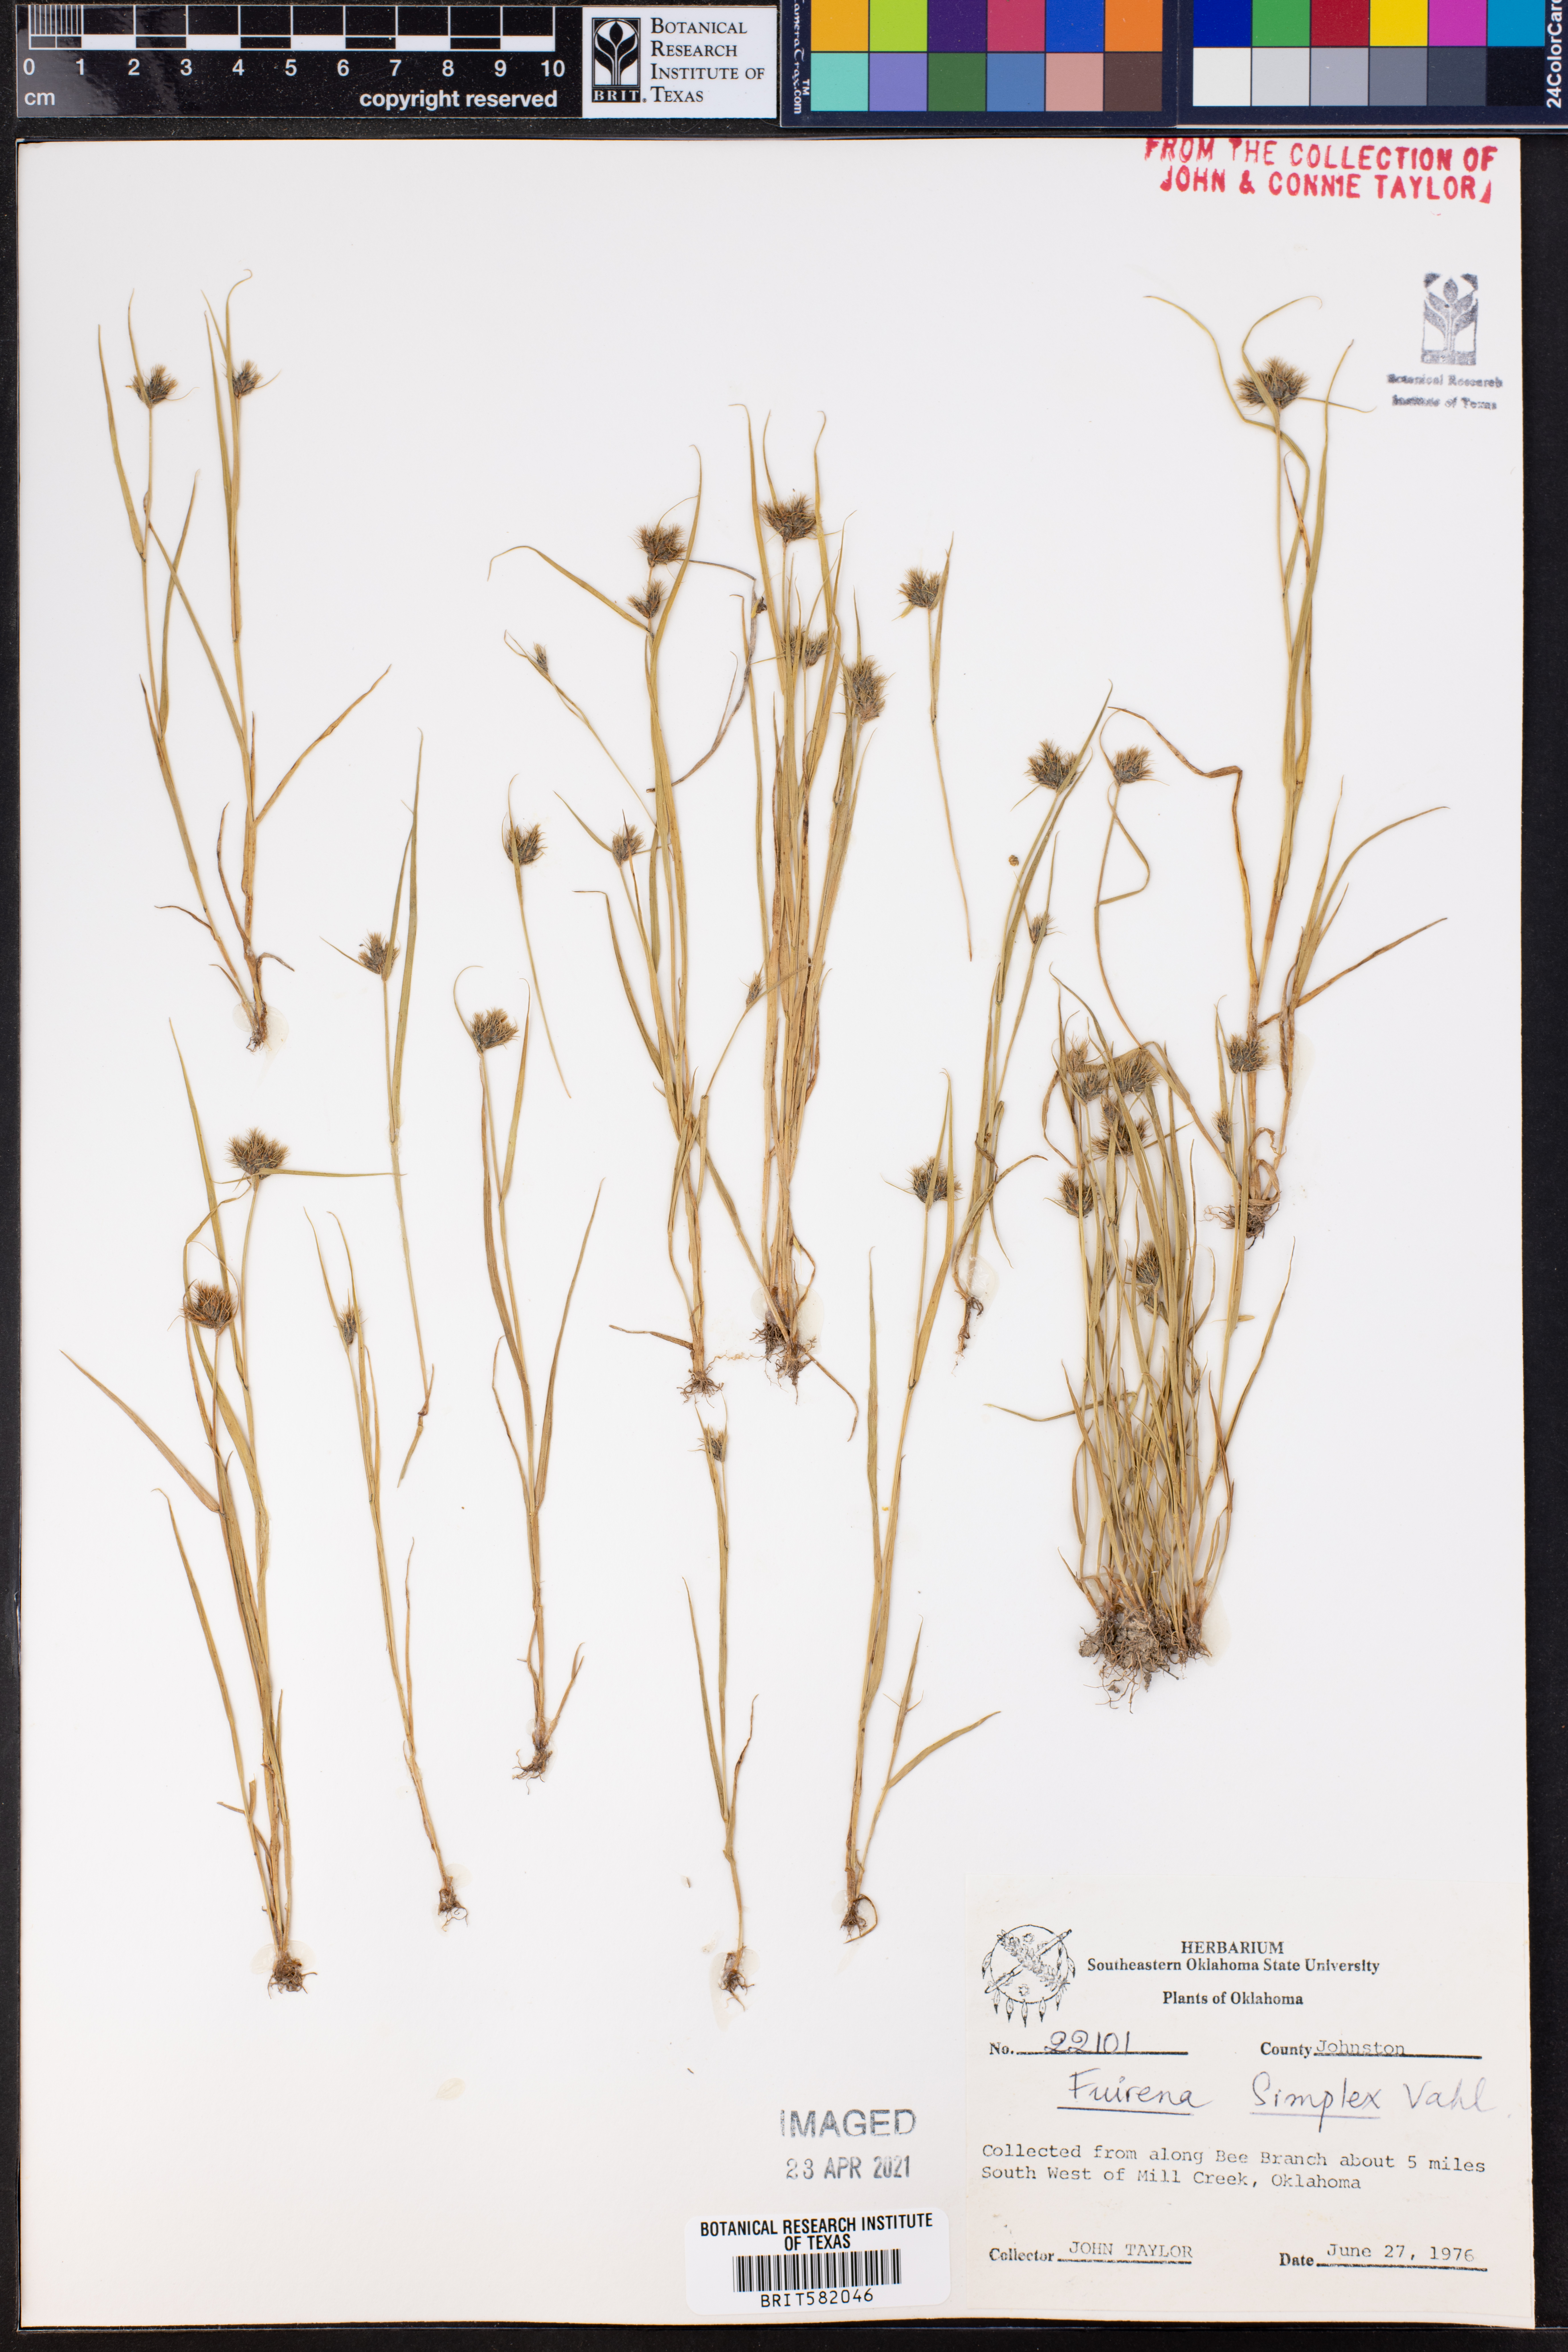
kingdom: Plantae
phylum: Tracheophyta
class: Liliopsida
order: Poales
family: Cyperaceae
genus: Fuirena
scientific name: Fuirena simplex
